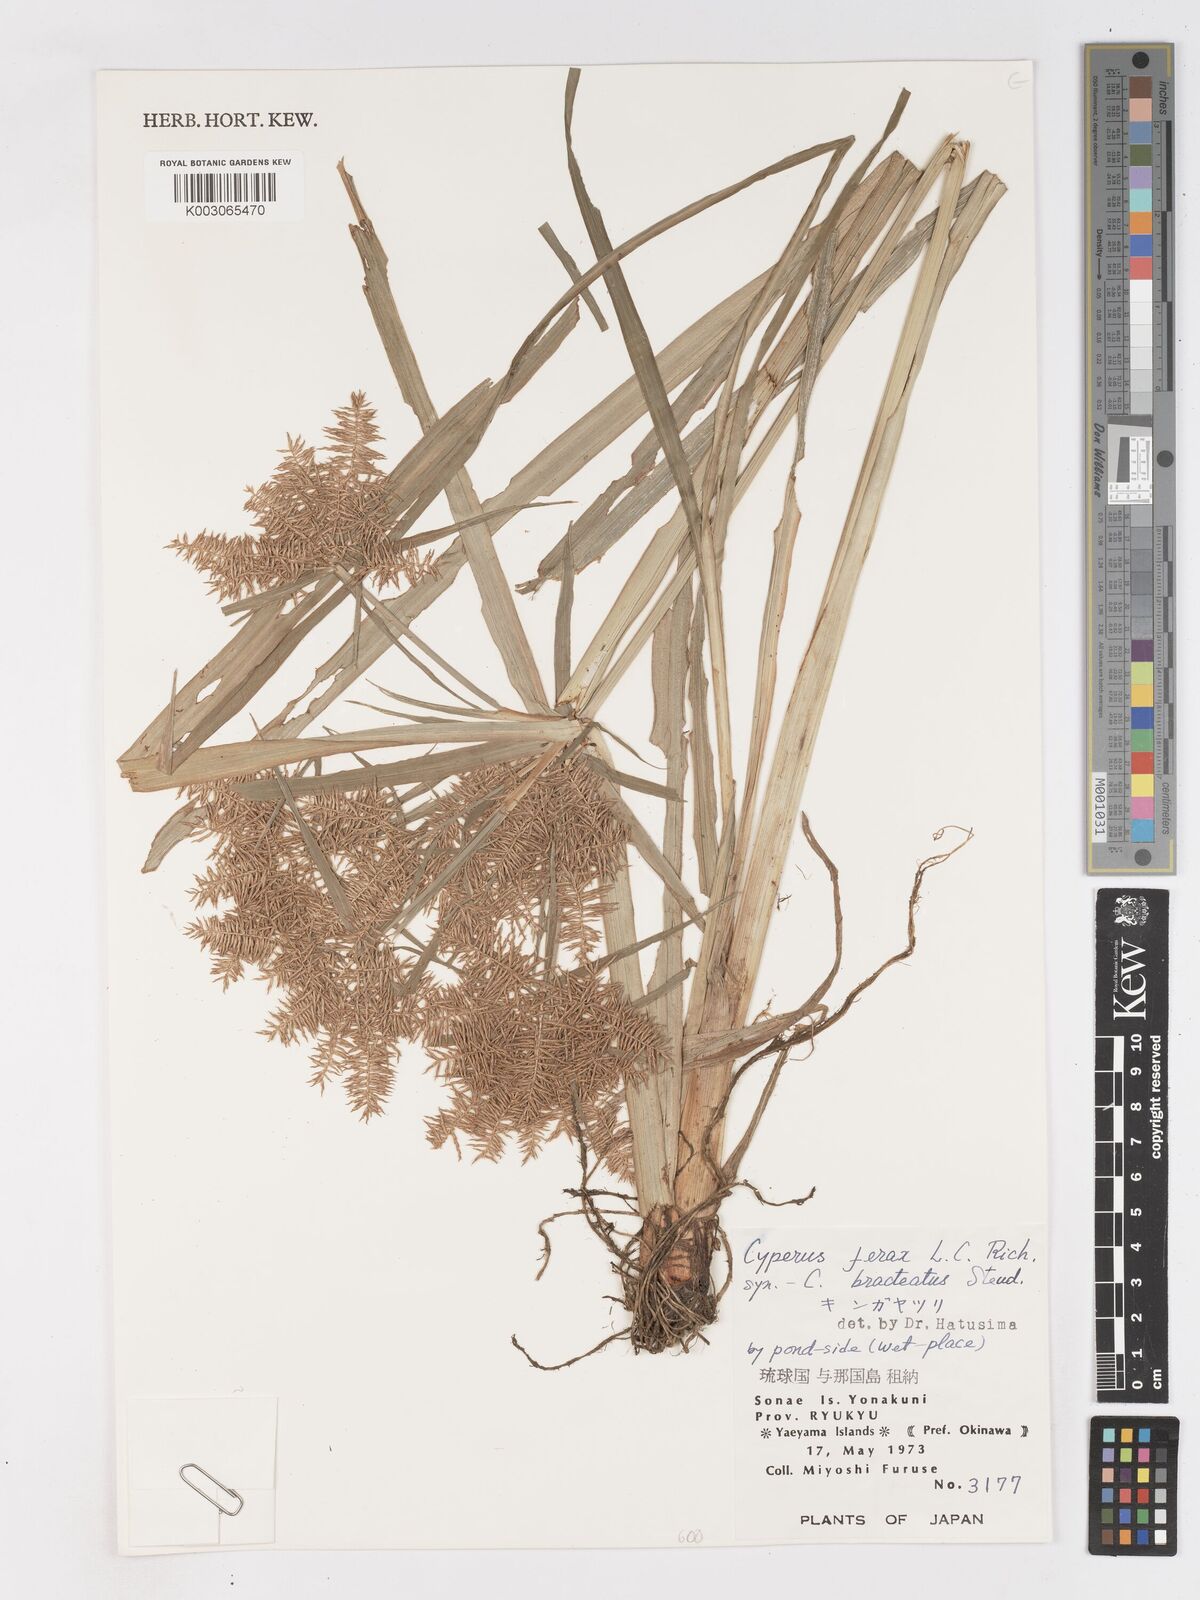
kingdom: Plantae
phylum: Tracheophyta
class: Liliopsida
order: Poales
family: Cyperaceae
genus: Cyperus
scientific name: Cyperus odoratus
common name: Fragrant flatsedge
